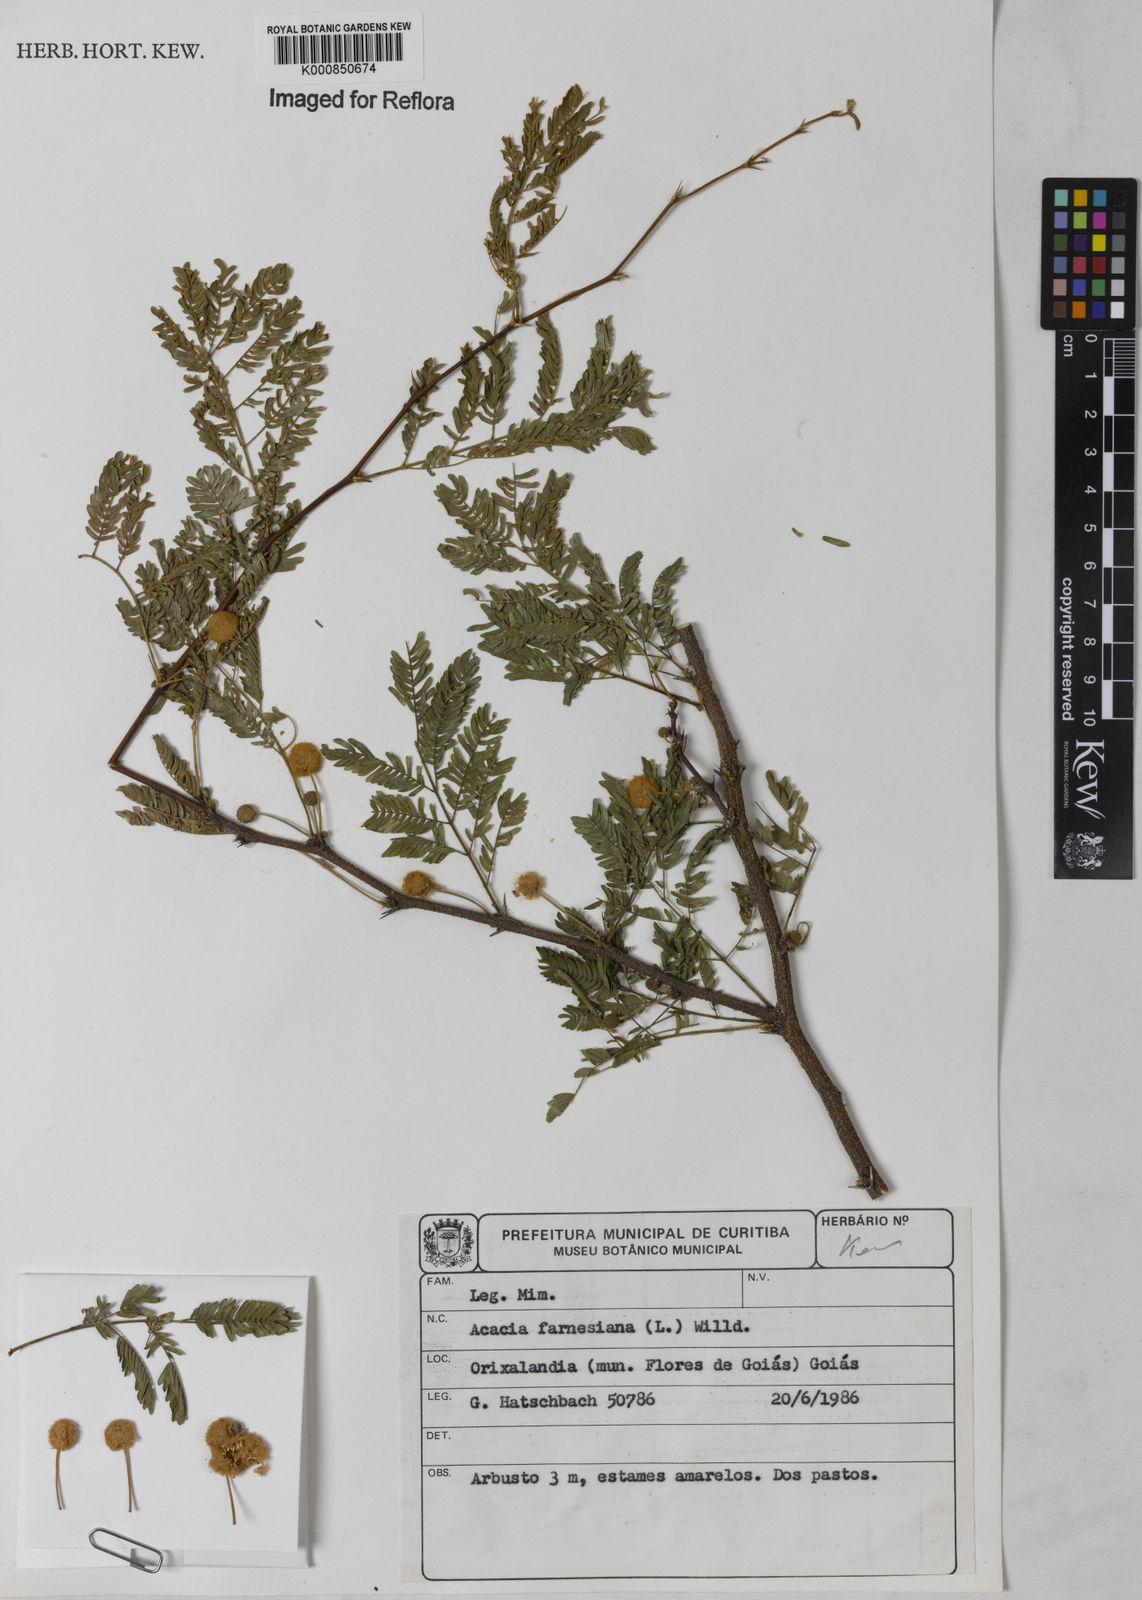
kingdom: Plantae
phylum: Tracheophyta
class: Magnoliopsida
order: Fabales
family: Fabaceae
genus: Vachellia
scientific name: Vachellia farnesiana
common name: Sweet acacia
